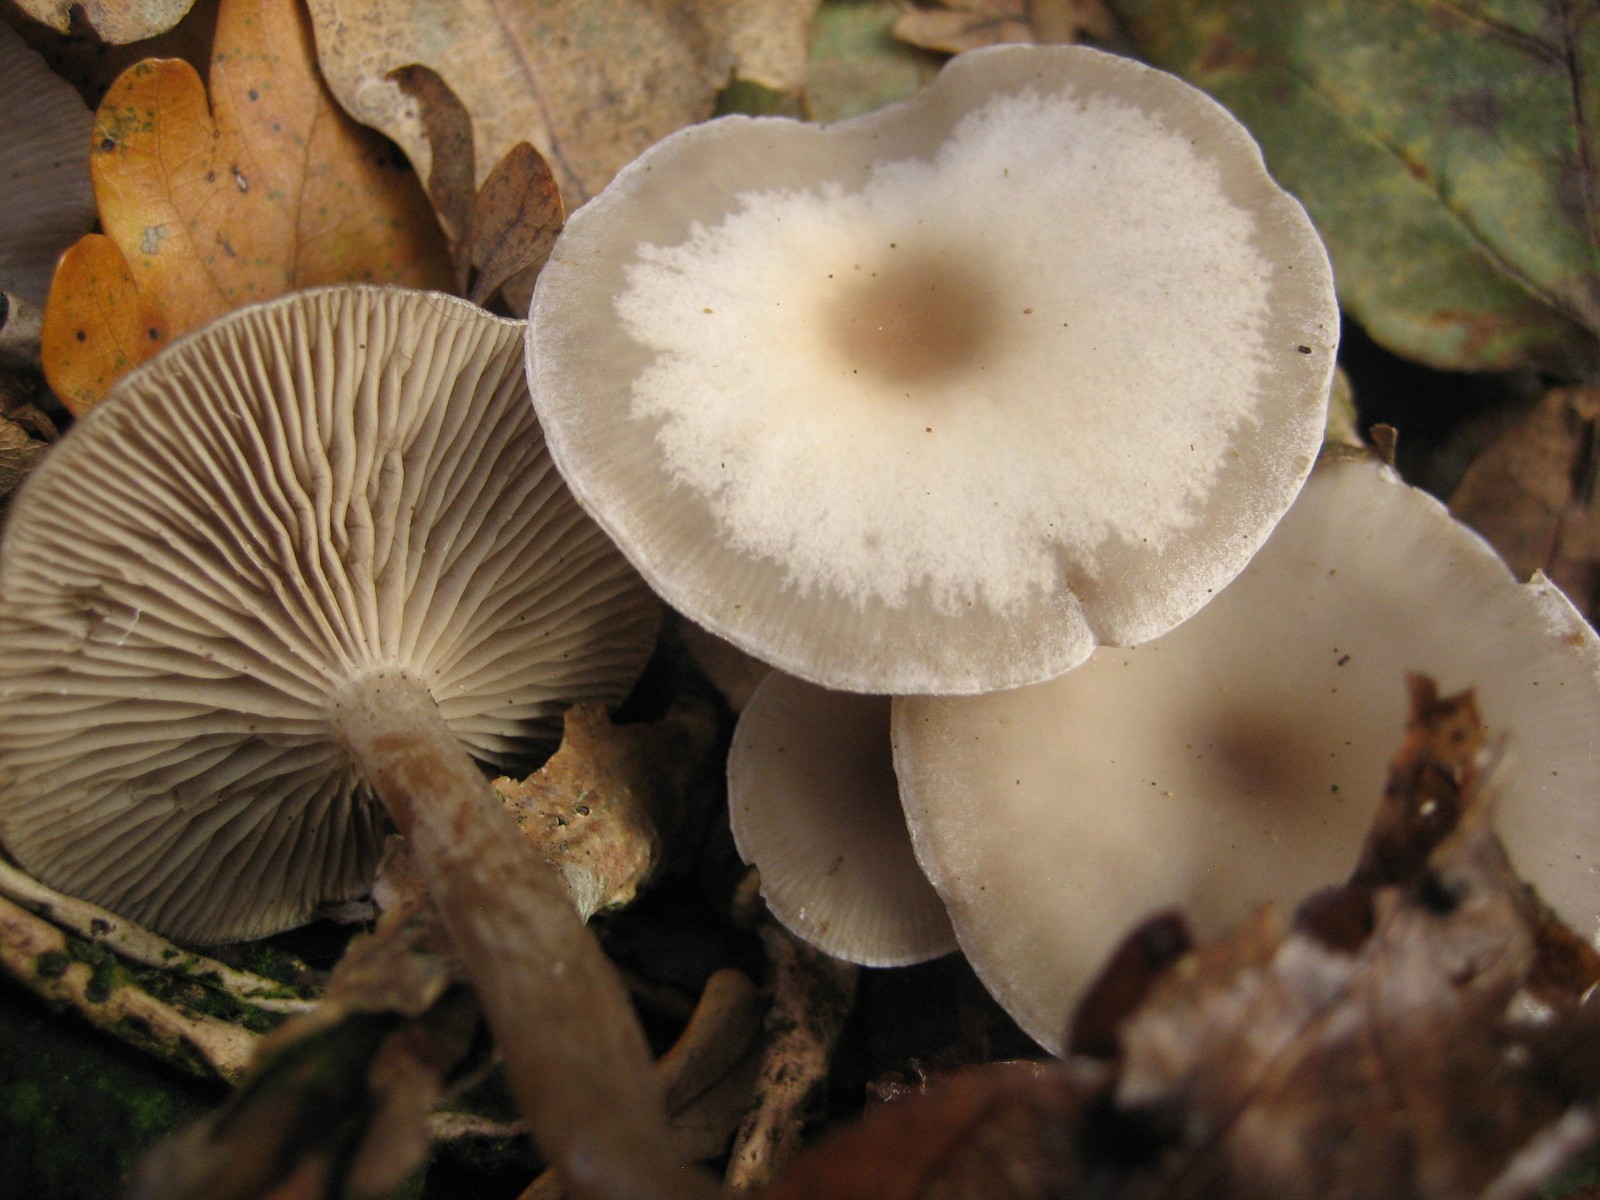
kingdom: Fungi
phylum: Basidiomycota
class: Agaricomycetes
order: Agaricales
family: Tricholomataceae
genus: Clitocybe
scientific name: Clitocybe
